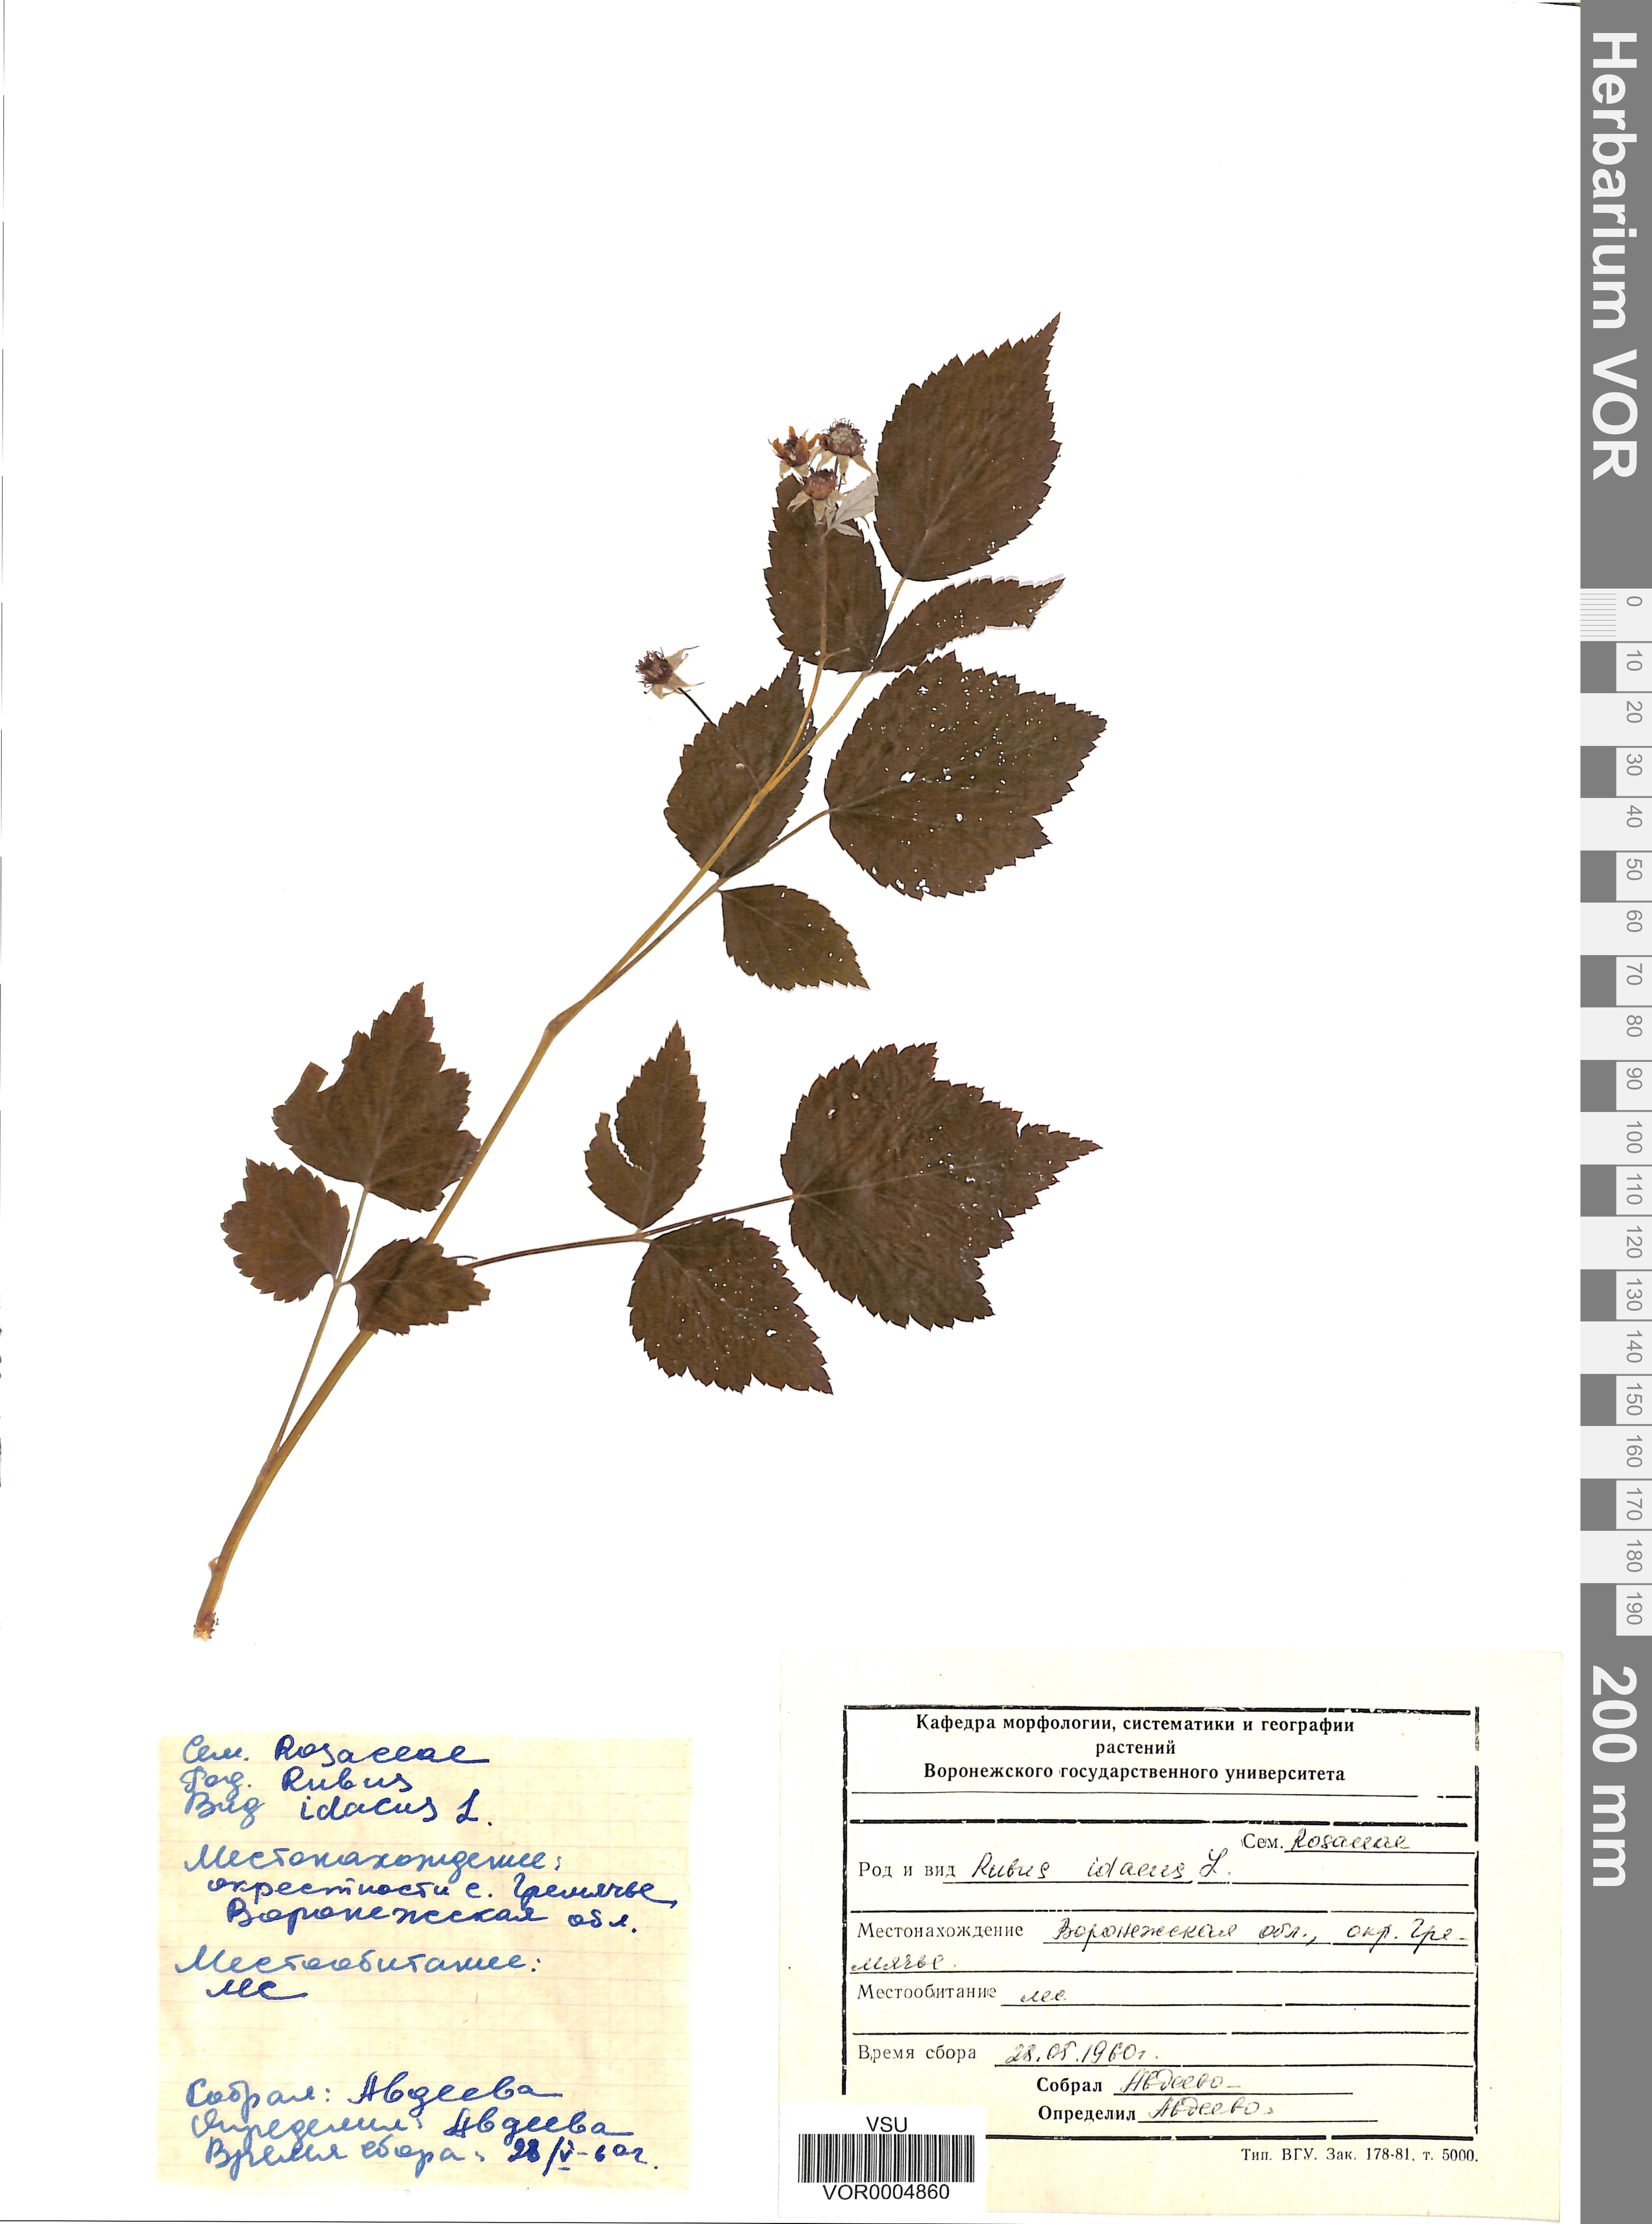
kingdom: Plantae
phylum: Tracheophyta
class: Magnoliopsida
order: Rosales
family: Rosaceae
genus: Rubus
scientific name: Rubus idaeus
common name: Raspberry
